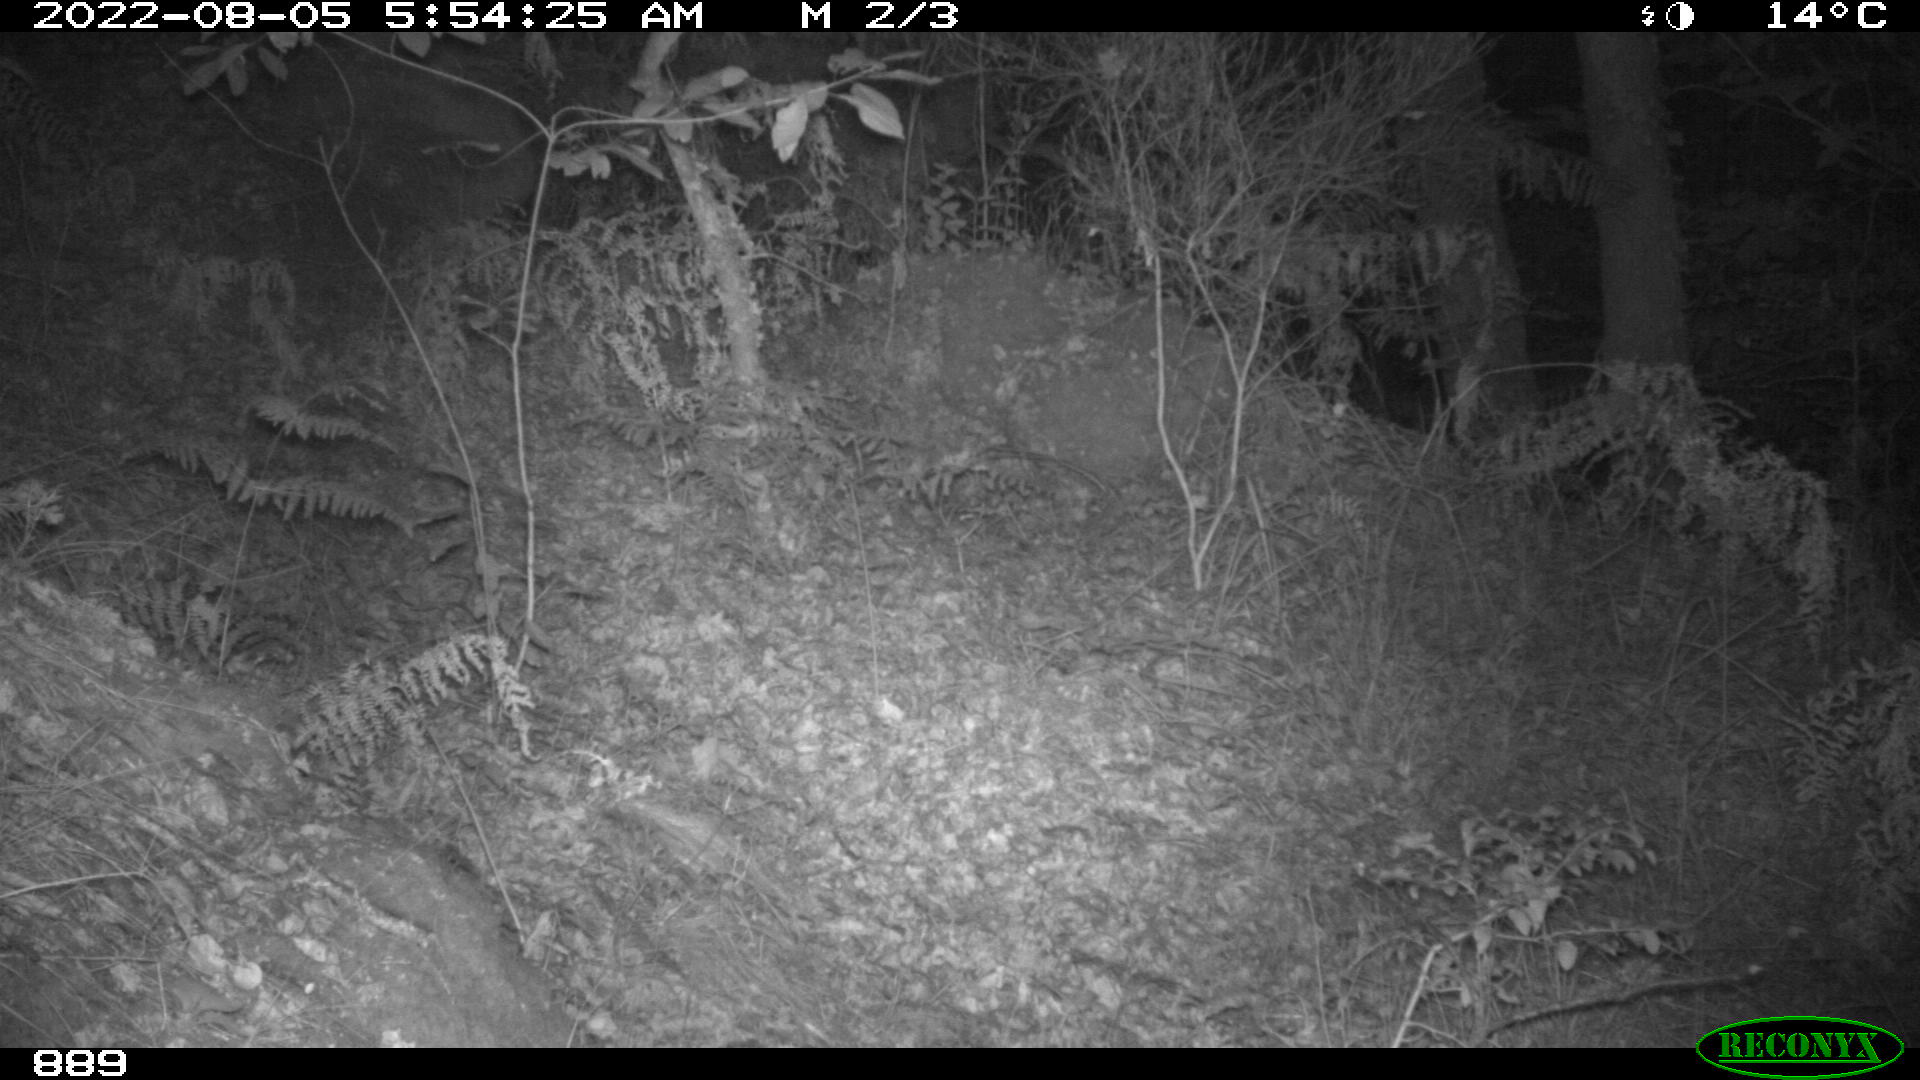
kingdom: Animalia
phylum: Chordata
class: Mammalia
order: Artiodactyla
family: Cervidae
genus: Capreolus
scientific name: Capreolus capreolus
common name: Western roe deer
